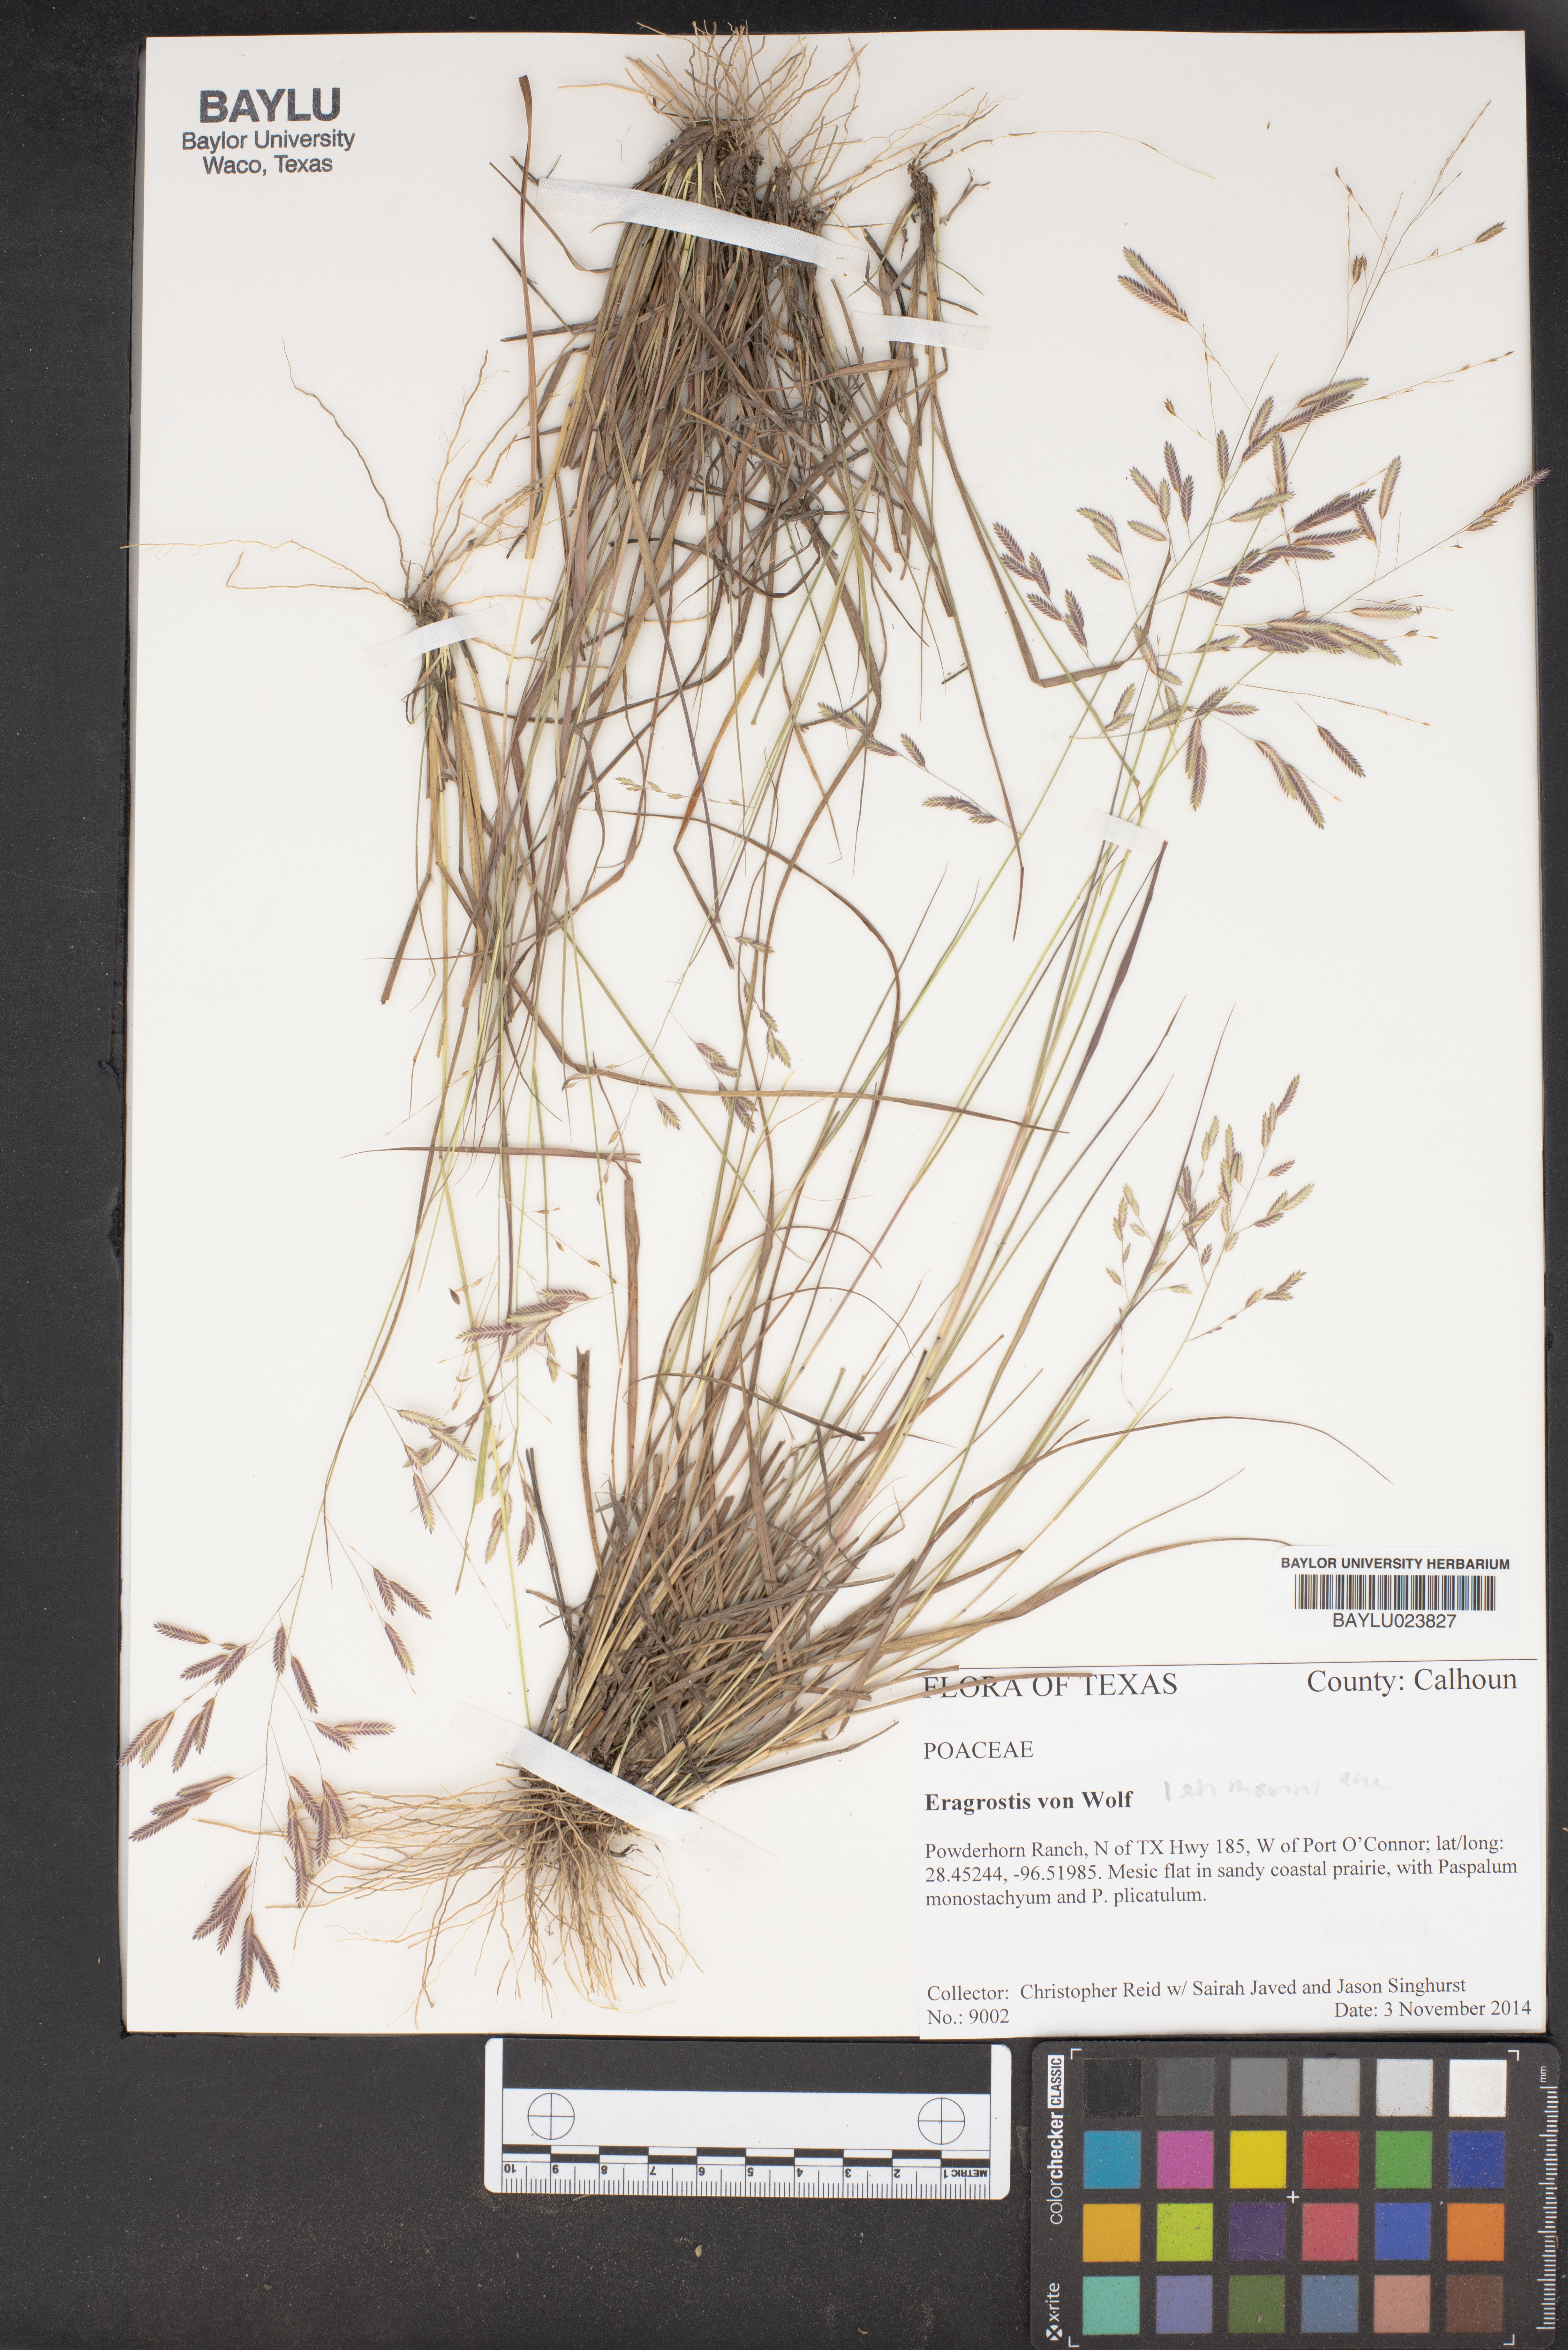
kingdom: Plantae
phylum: Tracheophyta
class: Liliopsida
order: Poales
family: Poaceae
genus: Eragrostis
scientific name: Eragrostis
